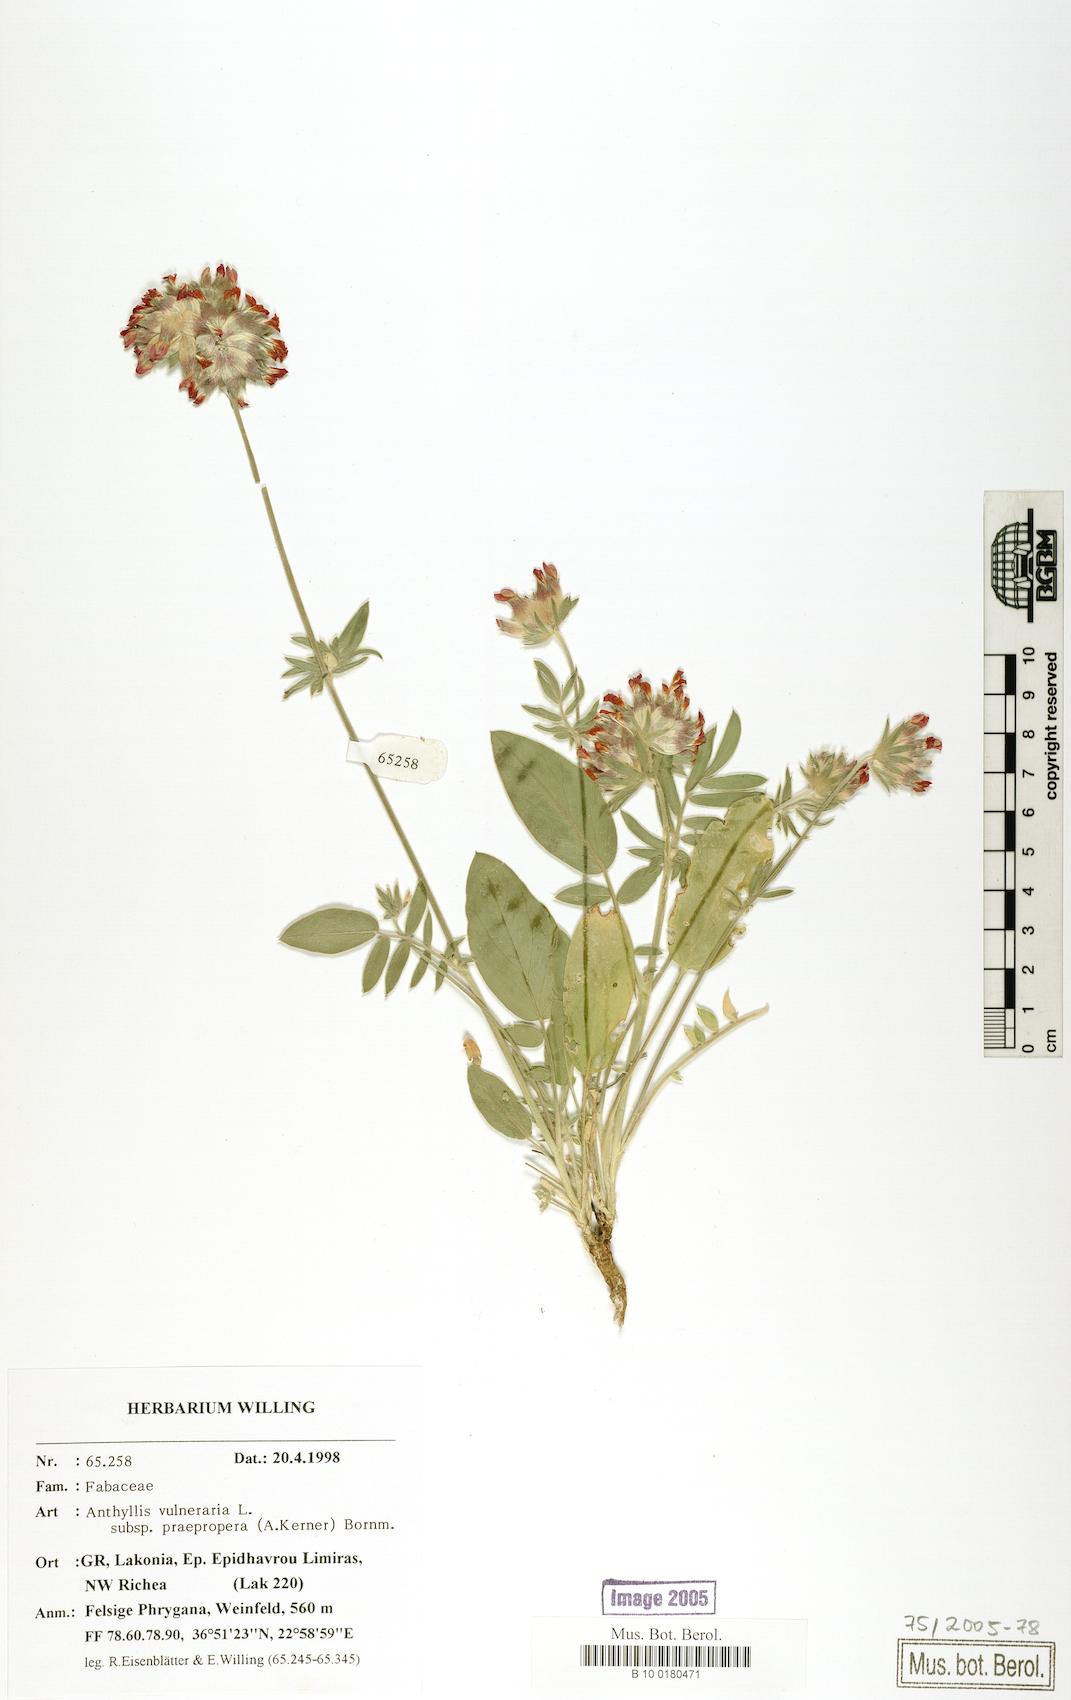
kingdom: Plantae
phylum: Tracheophyta
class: Magnoliopsida
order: Fabales
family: Fabaceae
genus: Anthyllis
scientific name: Anthyllis vulneraria
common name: Kidney vetch
